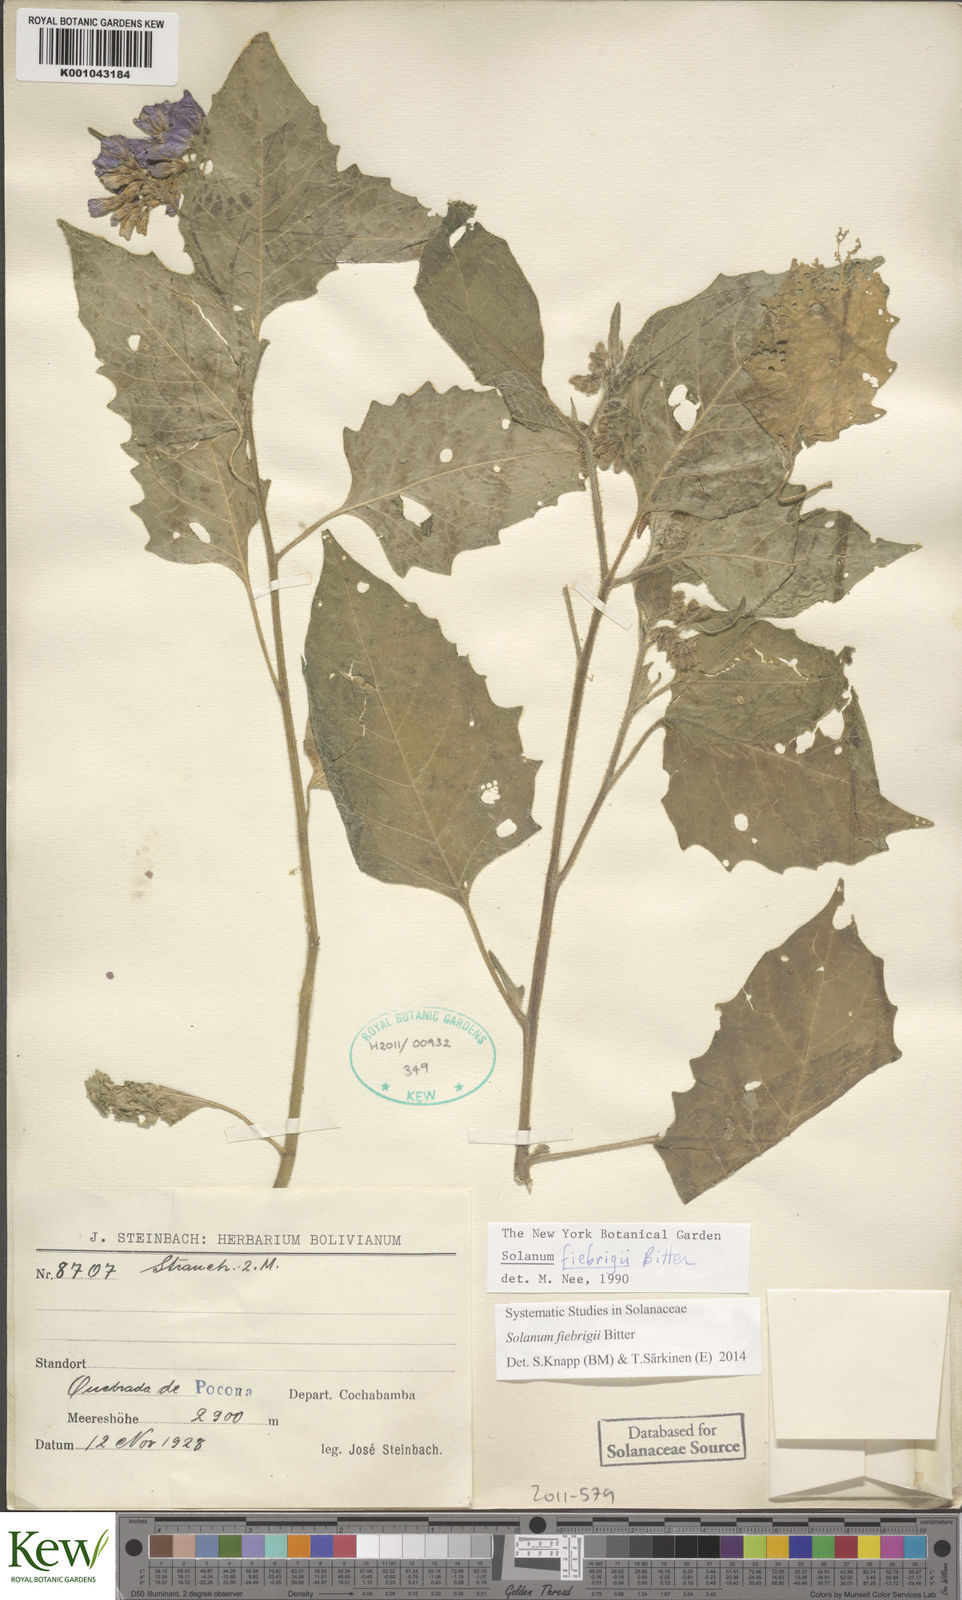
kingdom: Plantae
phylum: Tracheophyta
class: Magnoliopsida
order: Solanales
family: Solanaceae
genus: Solanum
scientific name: Solanum fiebrigii
